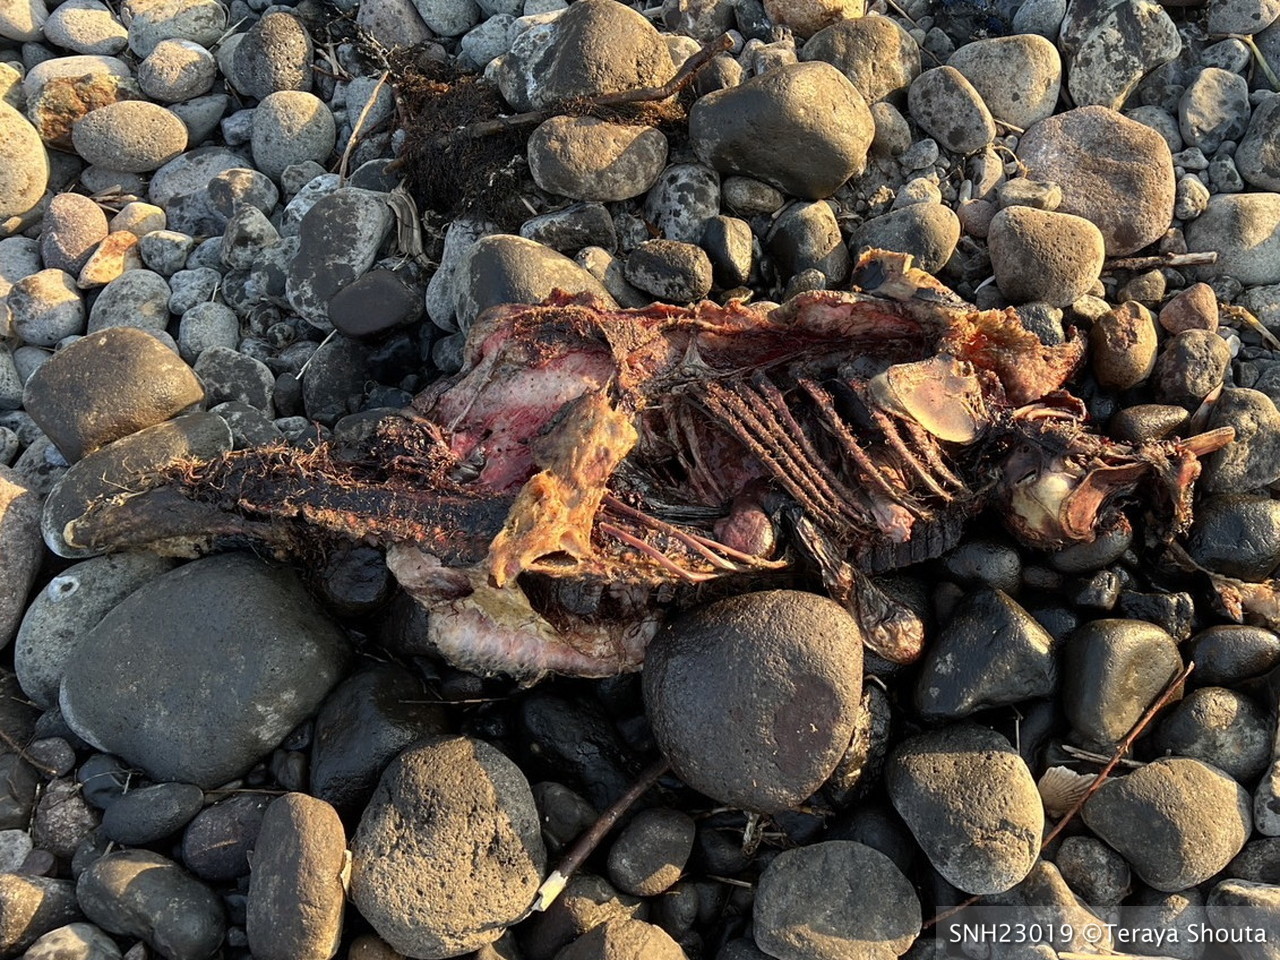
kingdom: Animalia
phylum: Chordata
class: Mammalia
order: Cetacea
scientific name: Cetacea
